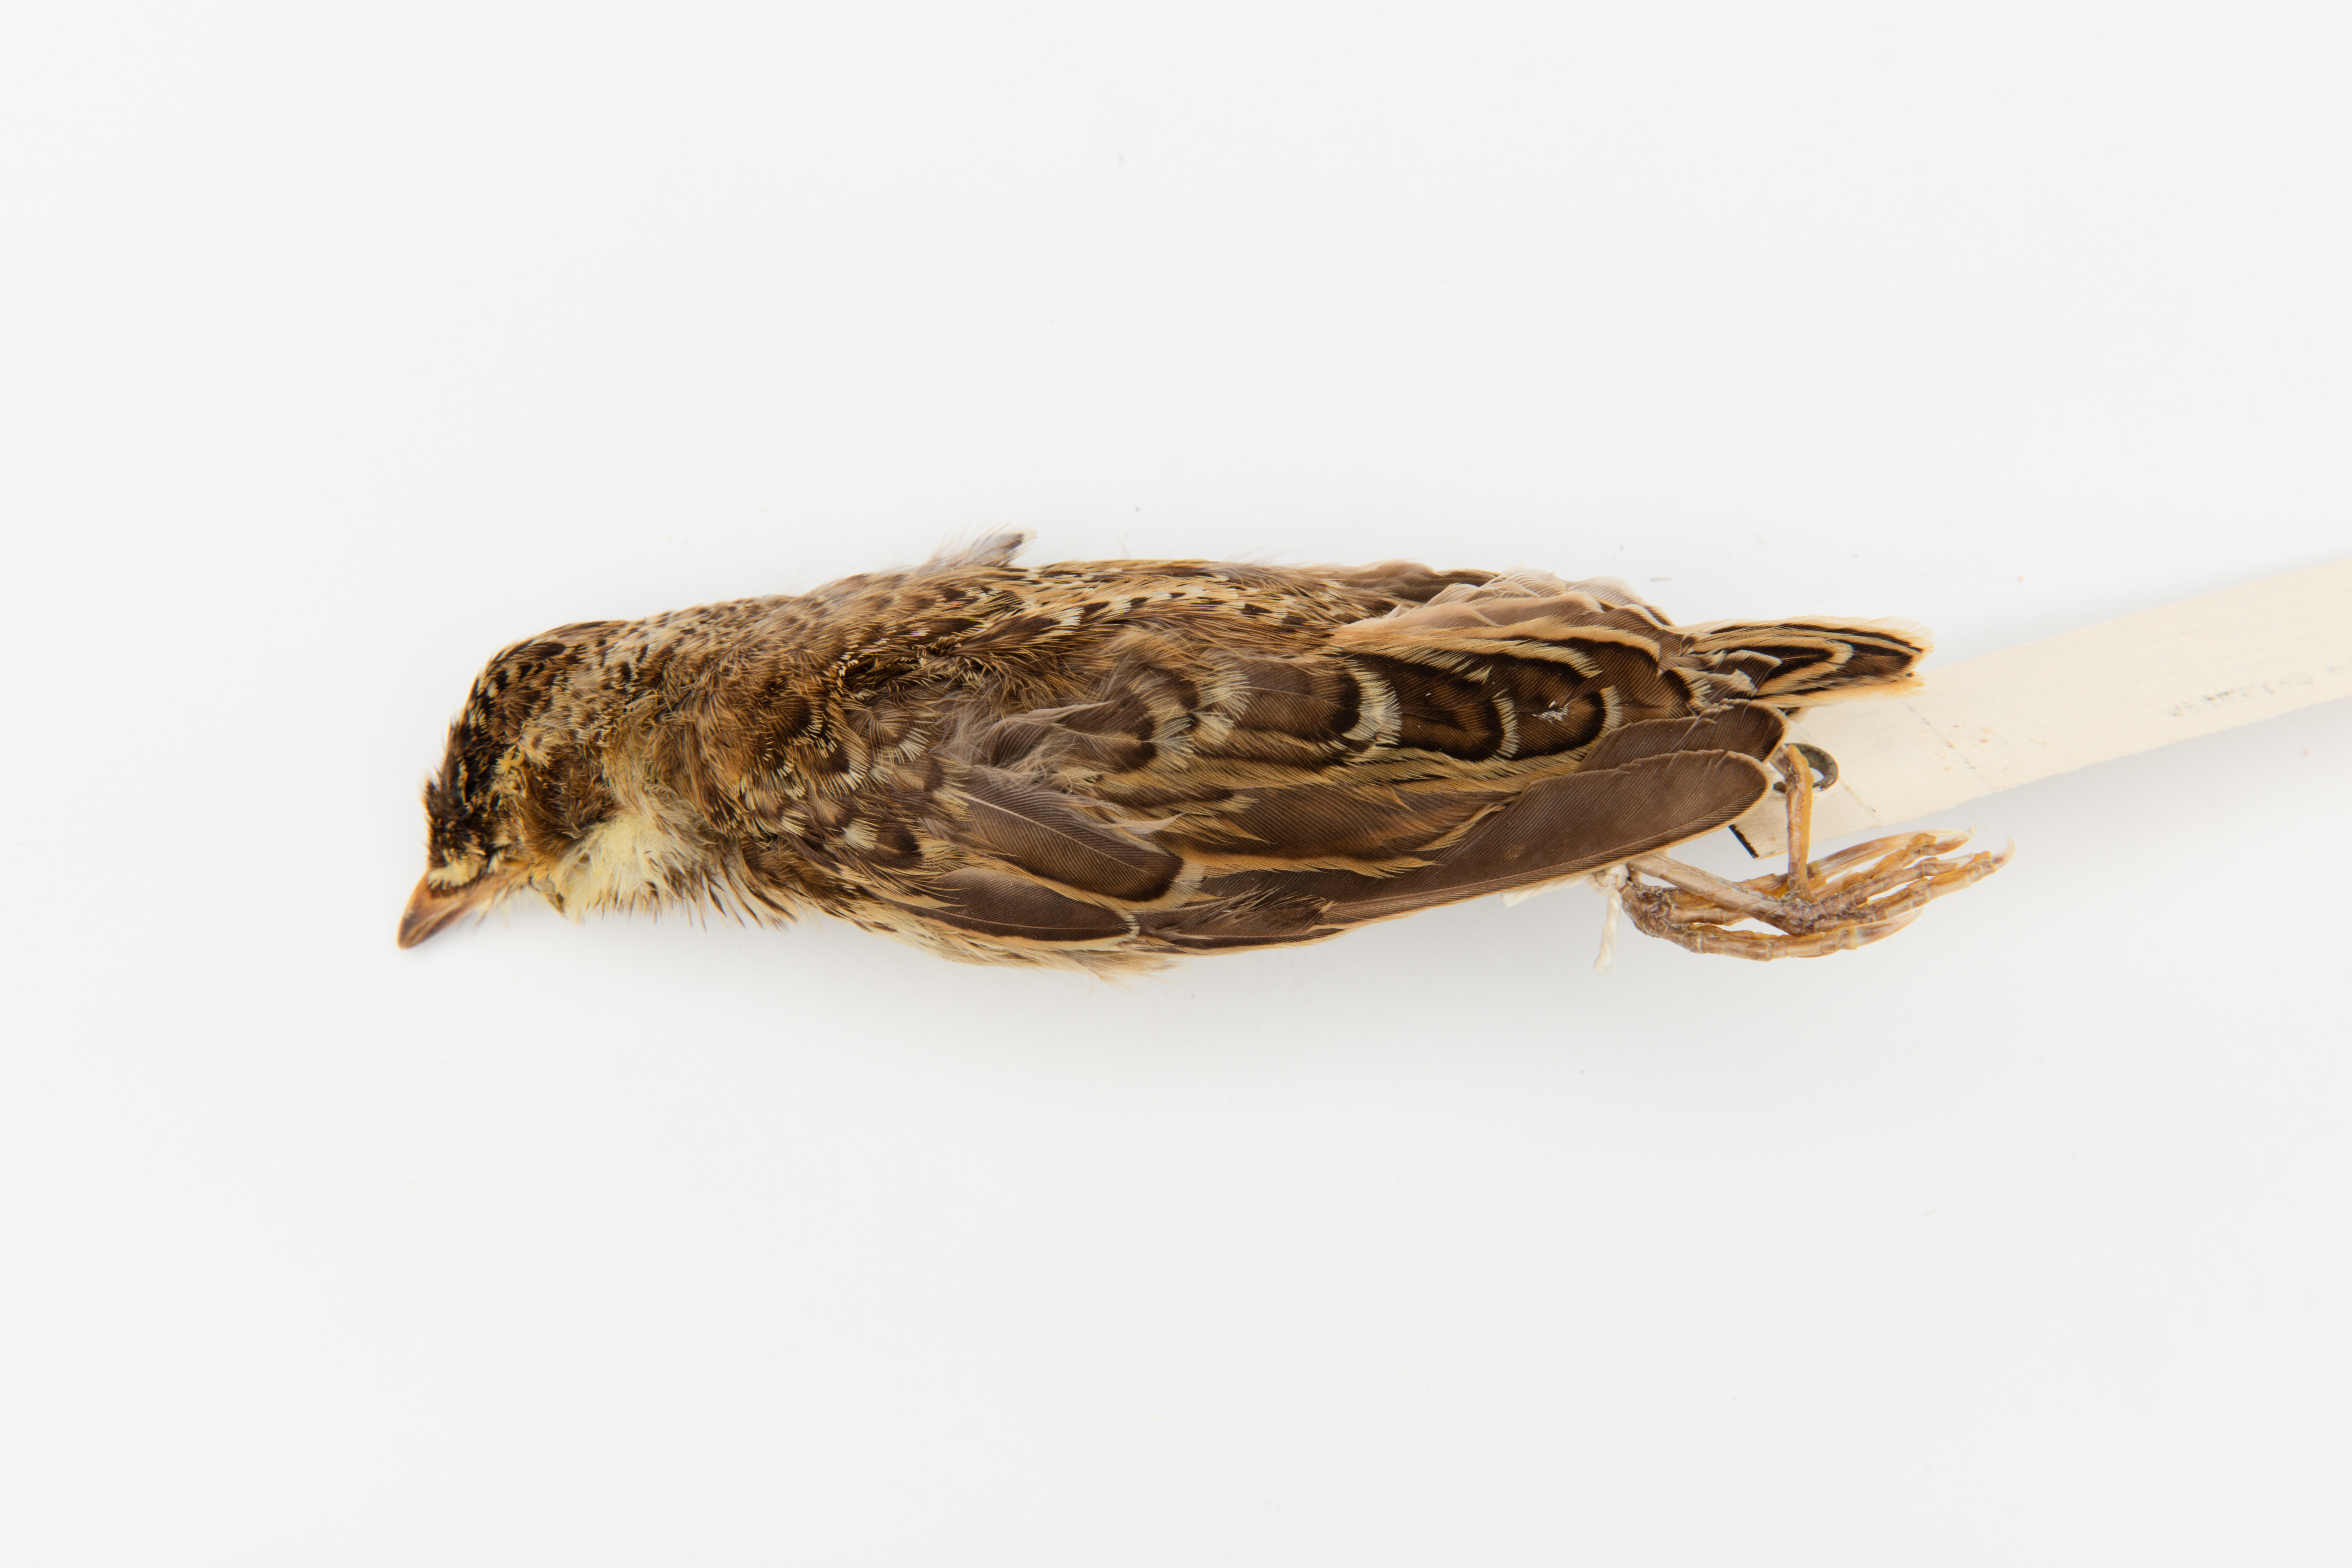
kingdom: Animalia
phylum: Chordata
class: Aves
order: Passeriformes
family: Alaudidae
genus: Alauda
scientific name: Alauda arvensis
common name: Eurasian skylark
